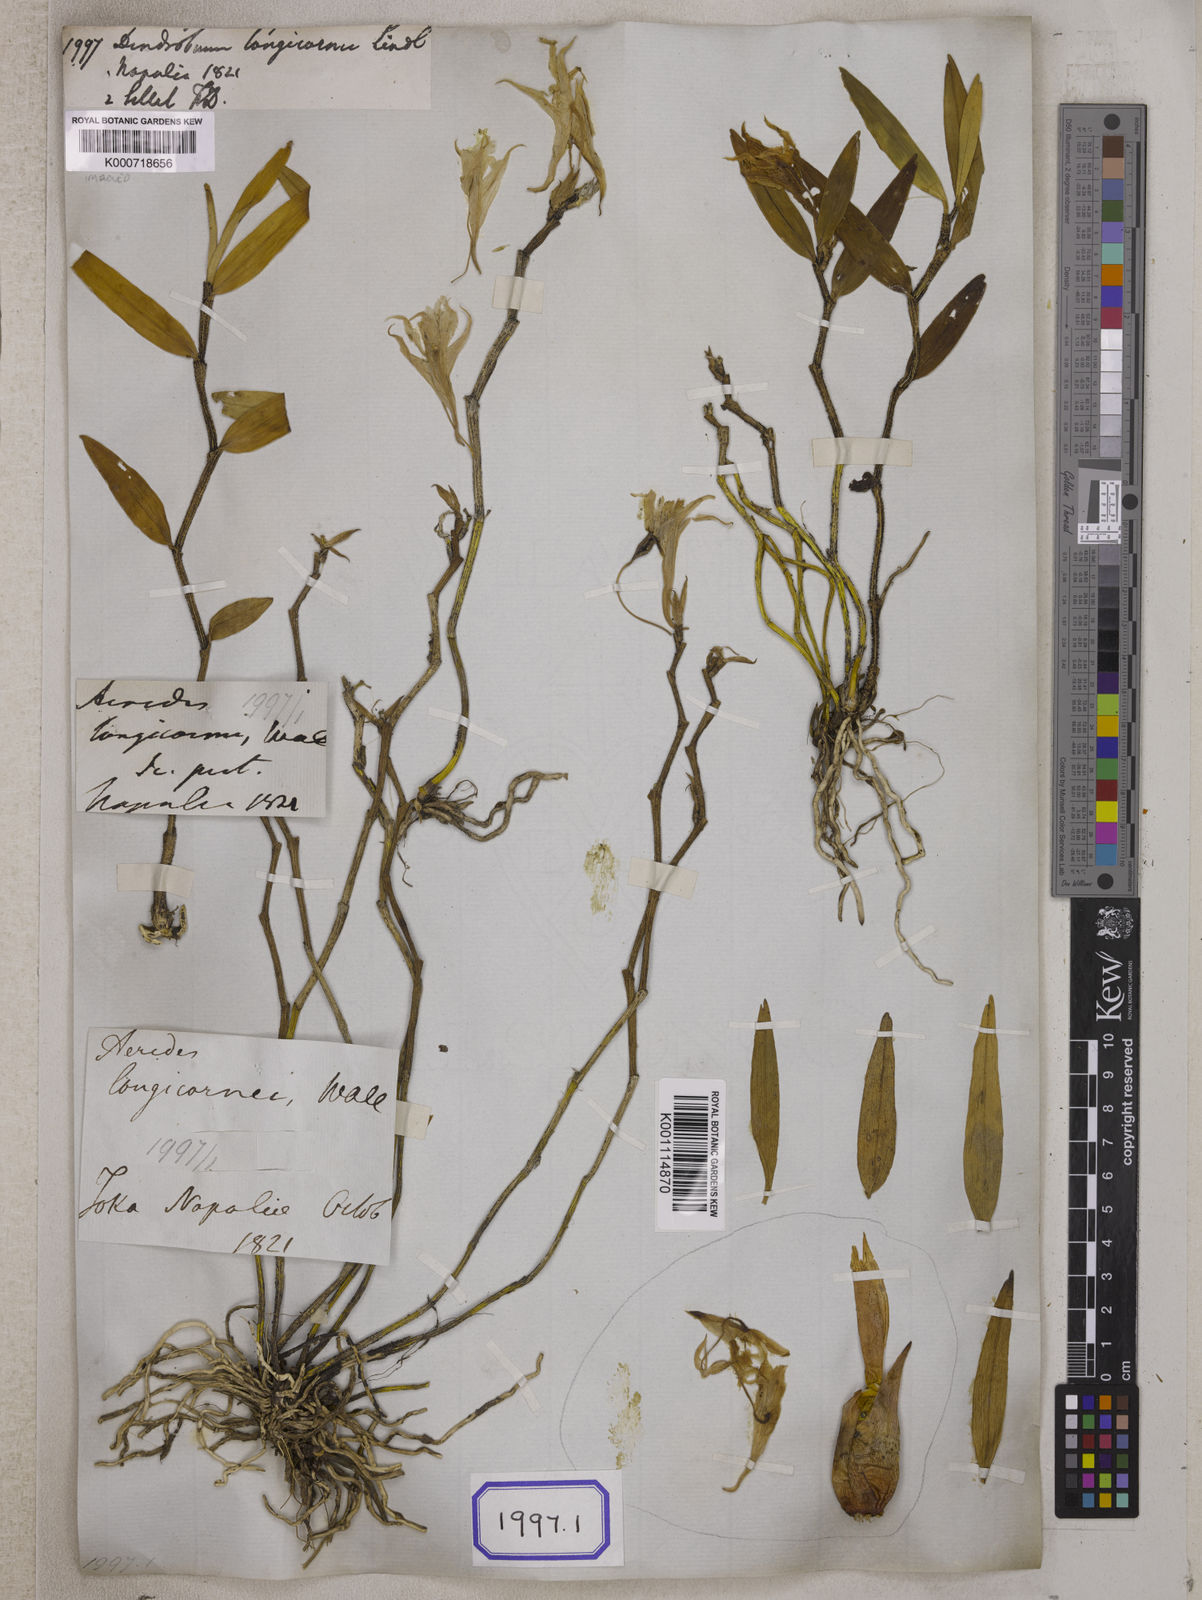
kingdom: Plantae
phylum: Tracheophyta
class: Liliopsida
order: Asparagales
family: Orchidaceae
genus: Dendrobium
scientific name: Dendrobium longicornu
